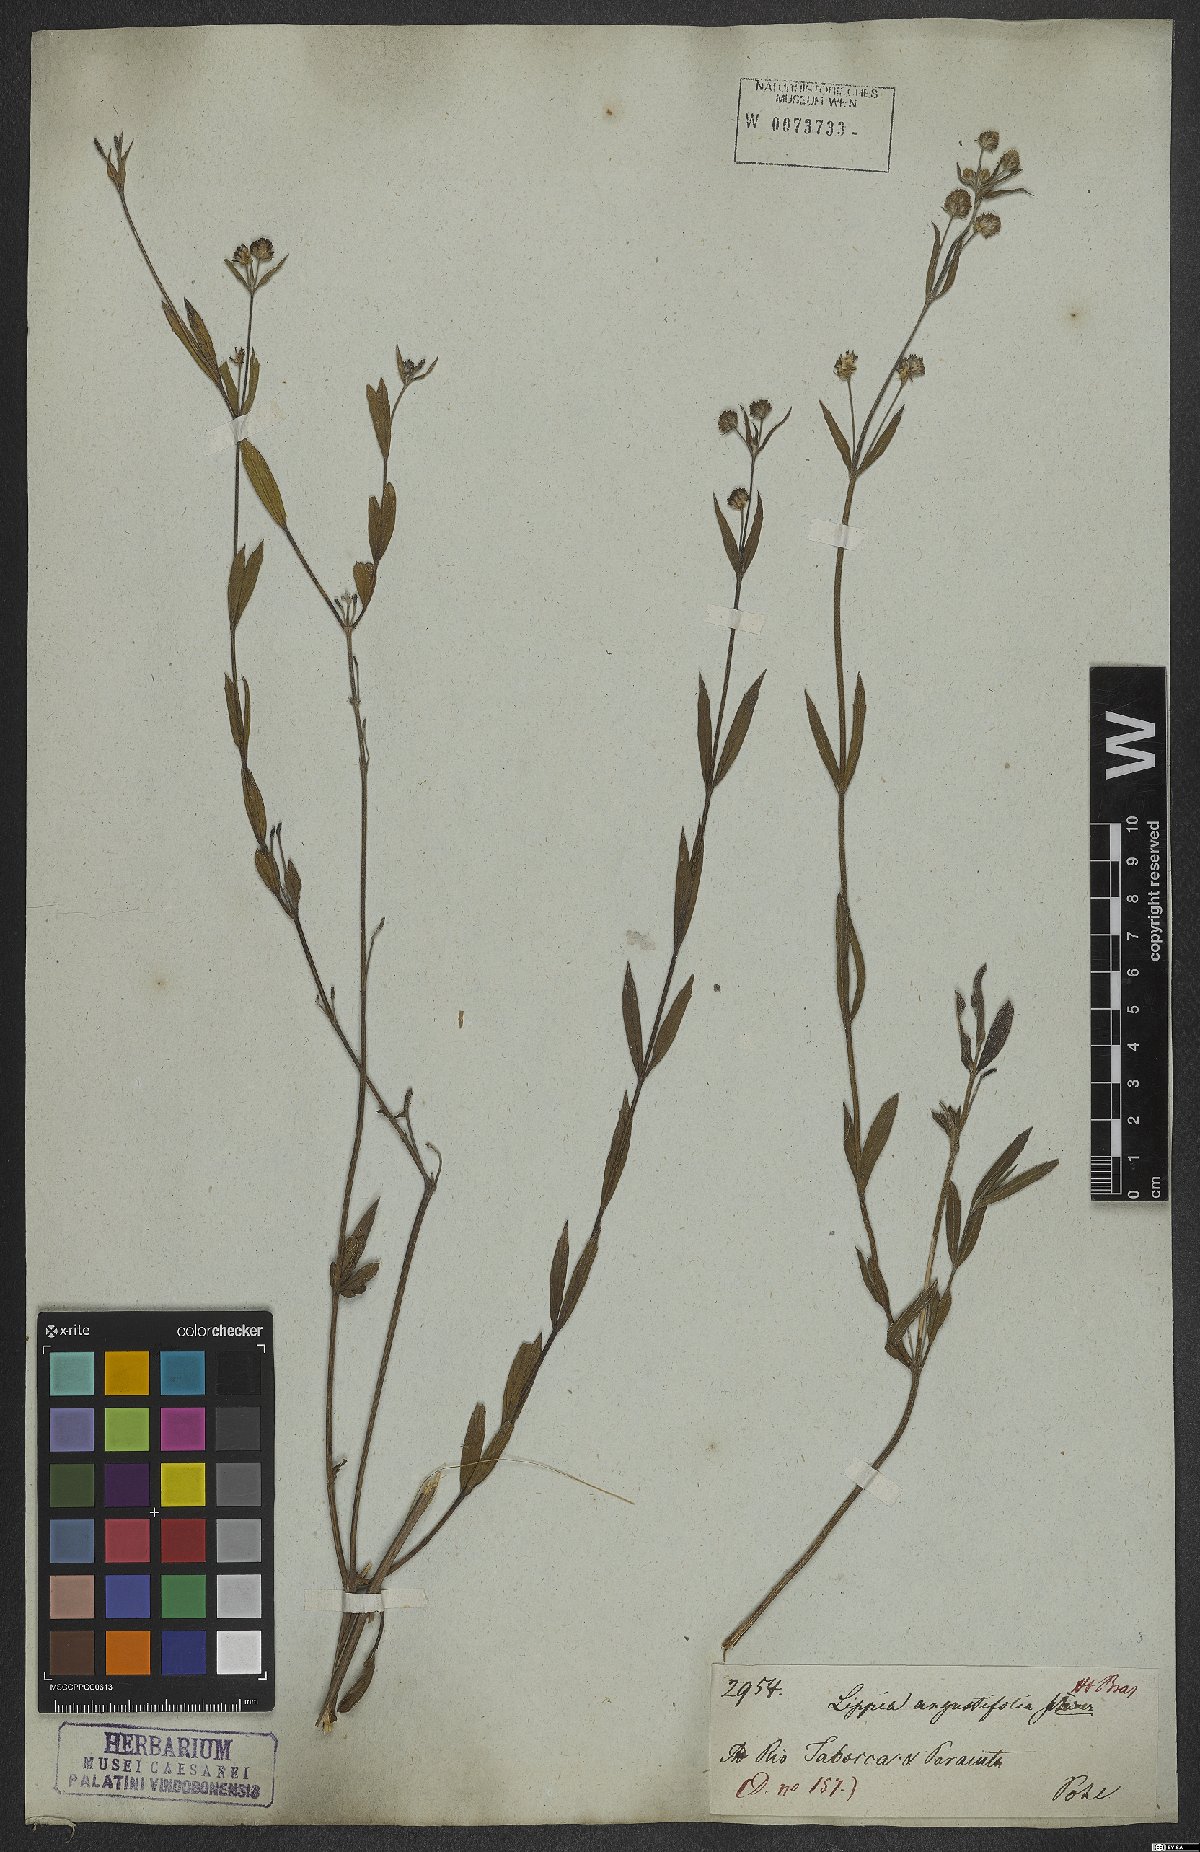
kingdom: Plantae
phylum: Tracheophyta
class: Magnoliopsida
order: Lamiales
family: Verbenaceae
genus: Lippia
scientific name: Lippia angustifolia
